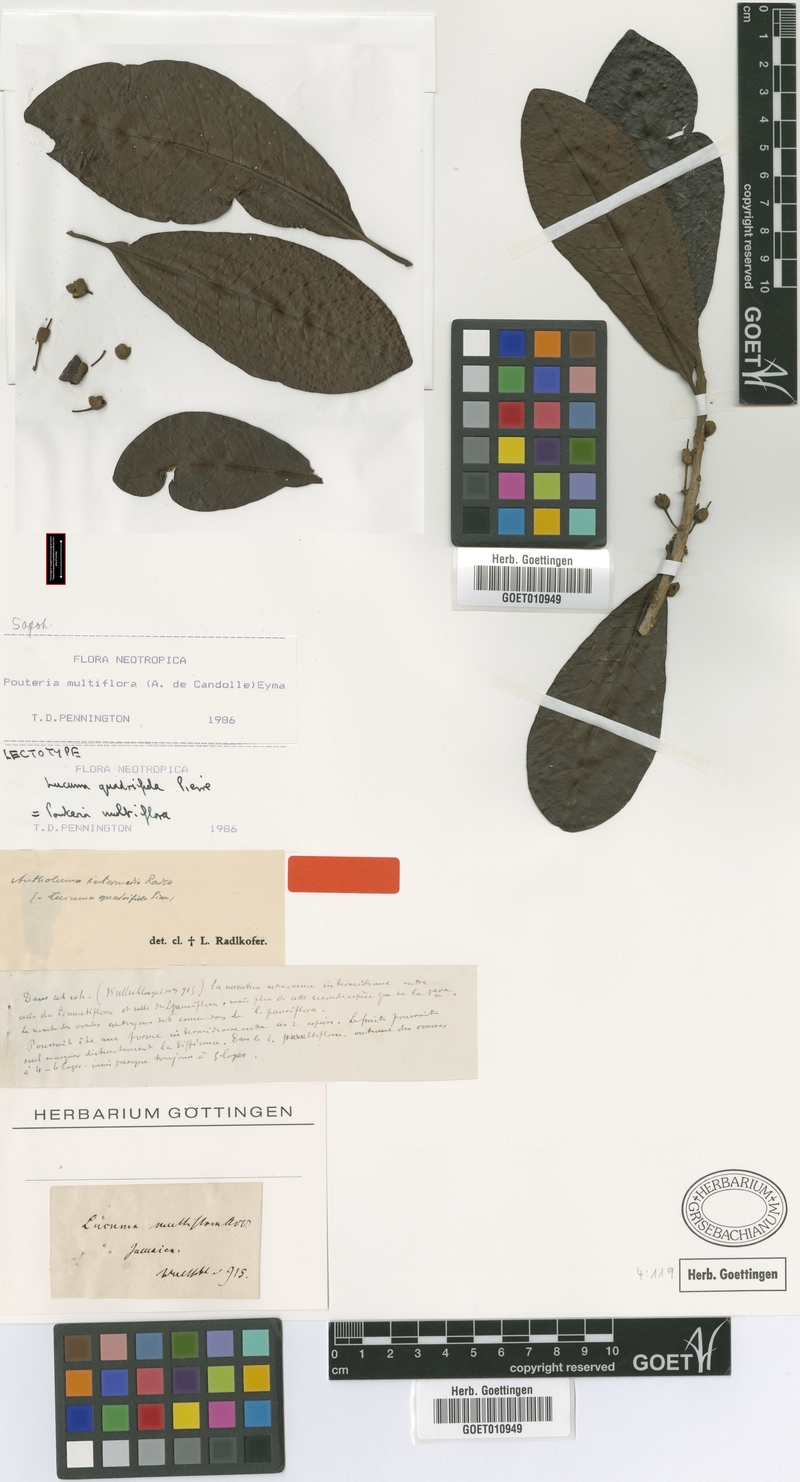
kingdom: Plantae
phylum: Tracheophyta
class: Magnoliopsida
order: Ericales
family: Sapotaceae
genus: Pouteria
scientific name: Pouteria multiflora
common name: Bullytree
